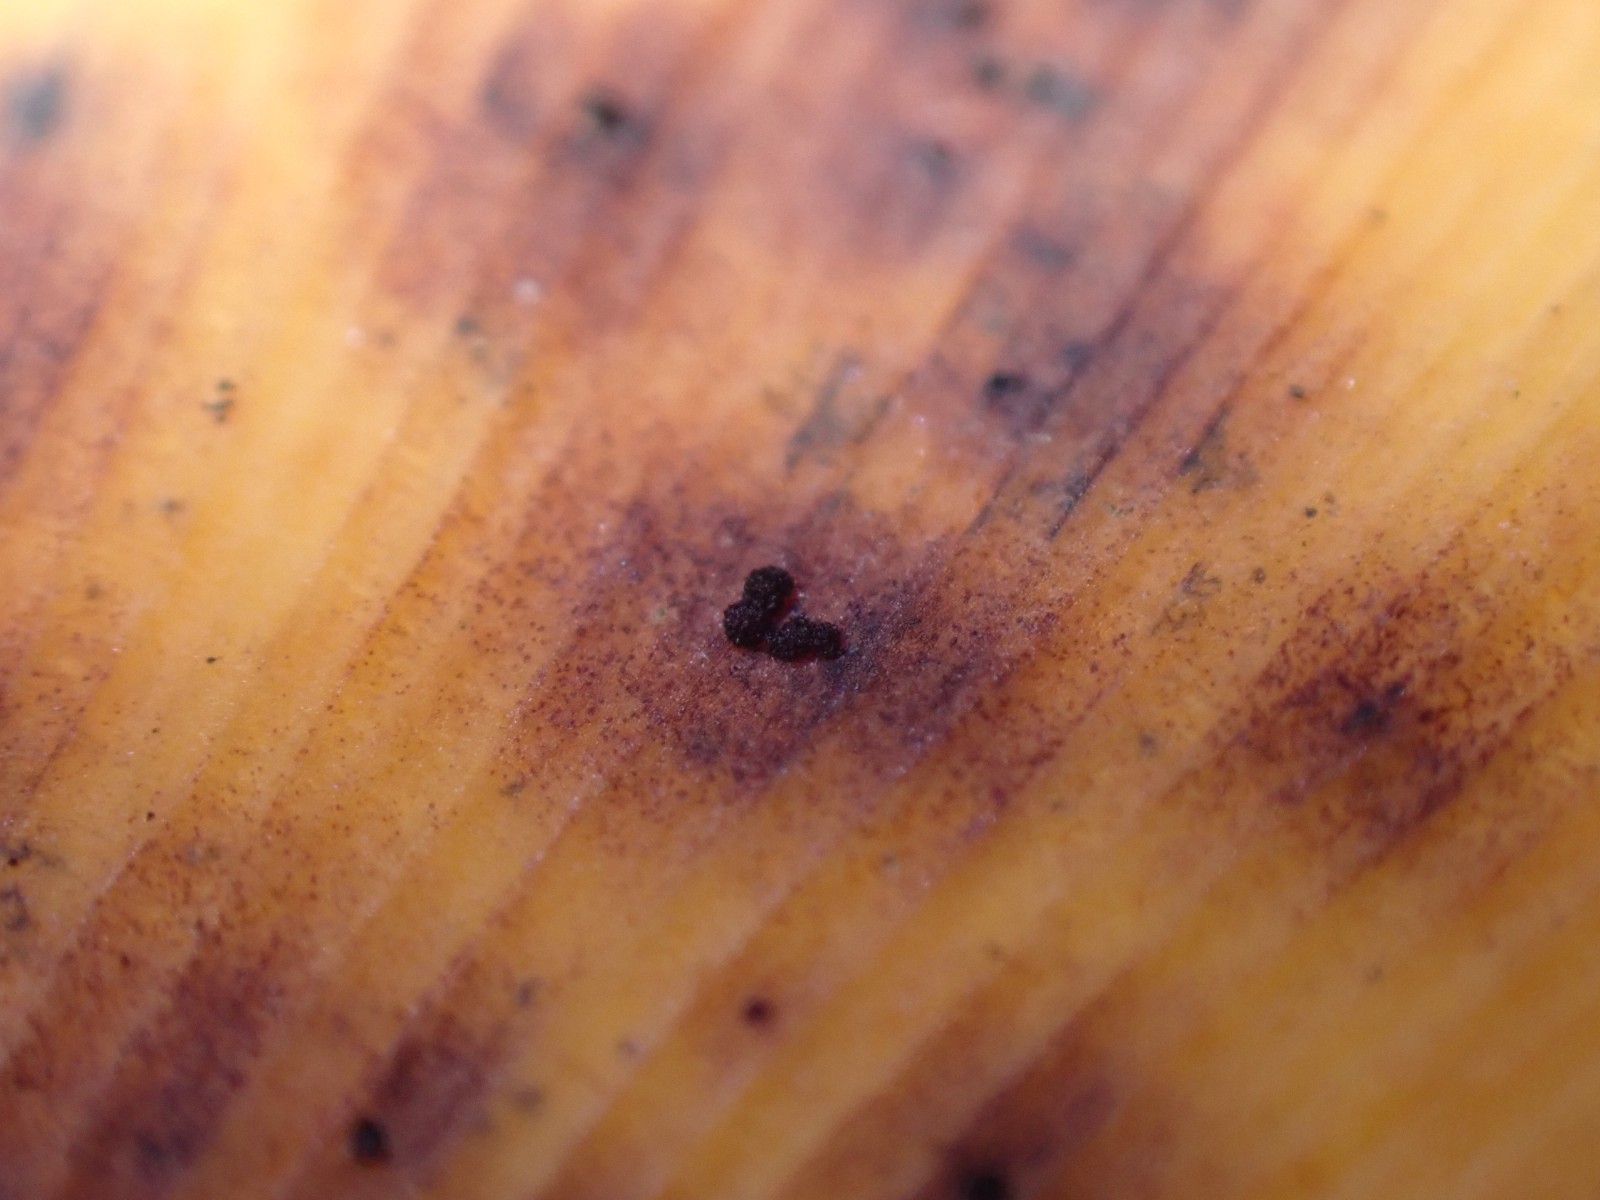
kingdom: Fungi
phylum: Basidiomycota
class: Wallemiomycetes
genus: Bartheletia
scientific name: Bartheletia paradoxa
